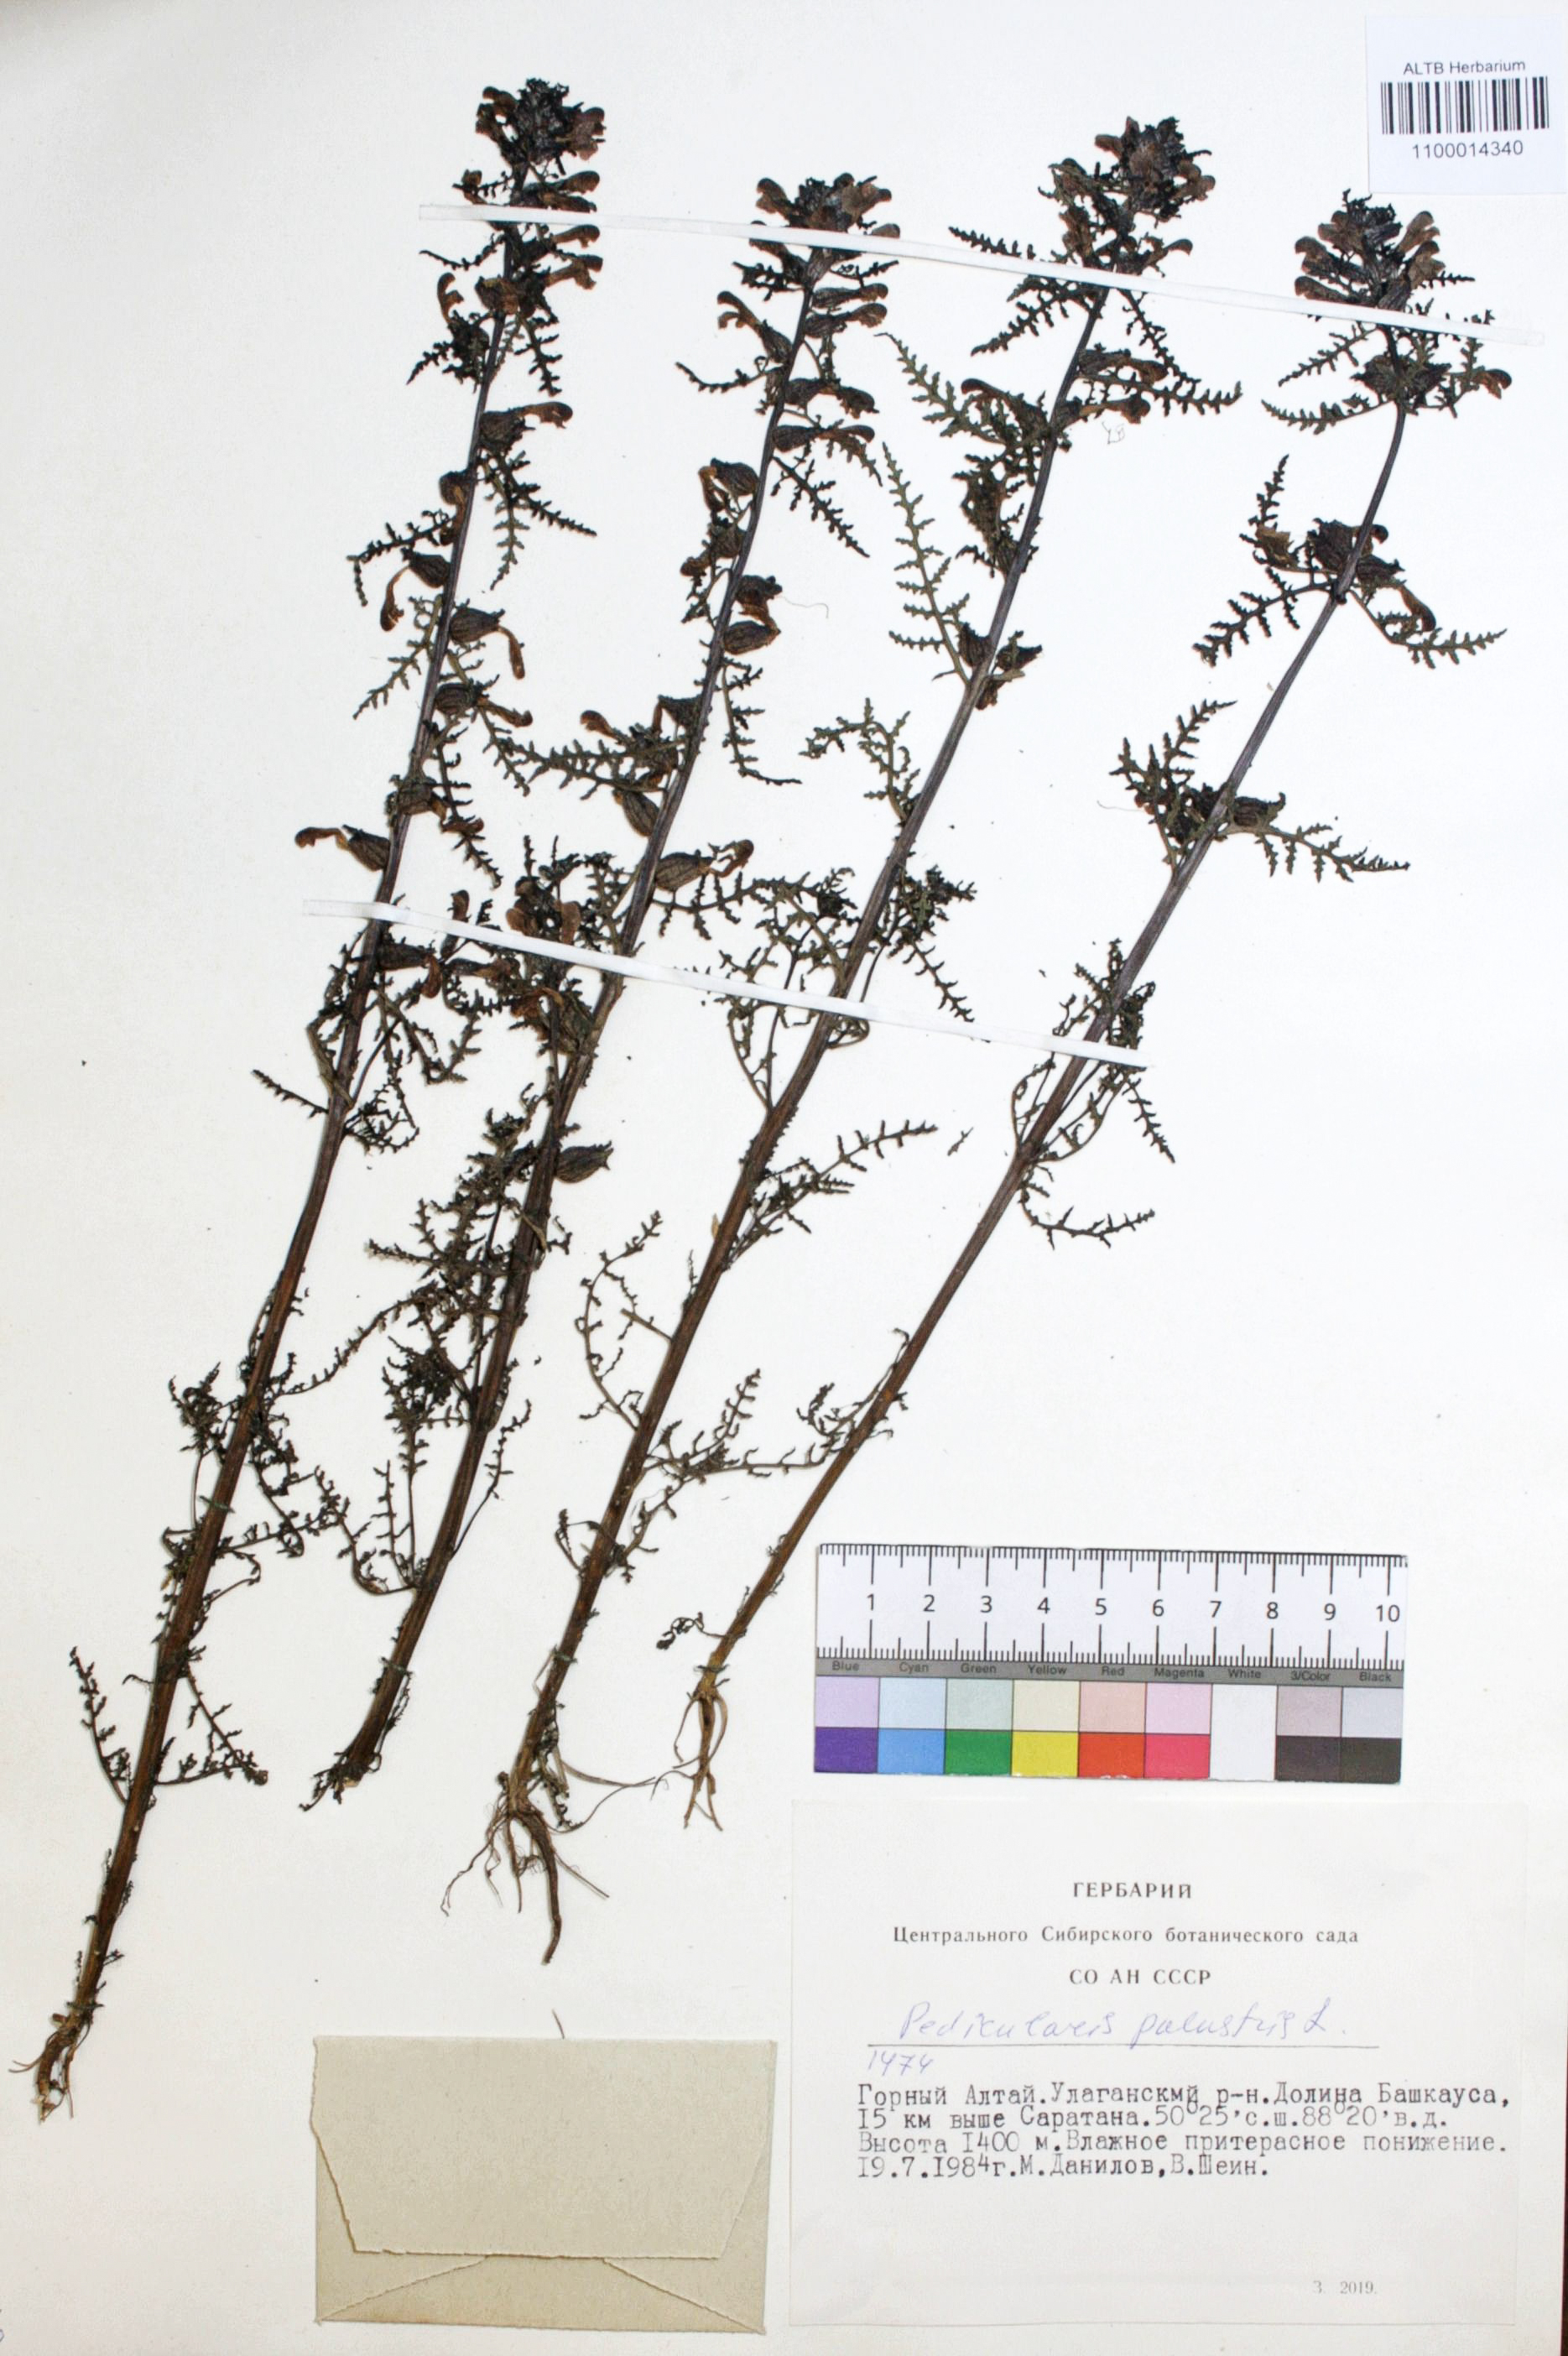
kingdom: Plantae
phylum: Tracheophyta
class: Magnoliopsida
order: Lamiales
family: Orobanchaceae
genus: Pedicularis
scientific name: Pedicularis palustris
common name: Marsh lousewort
